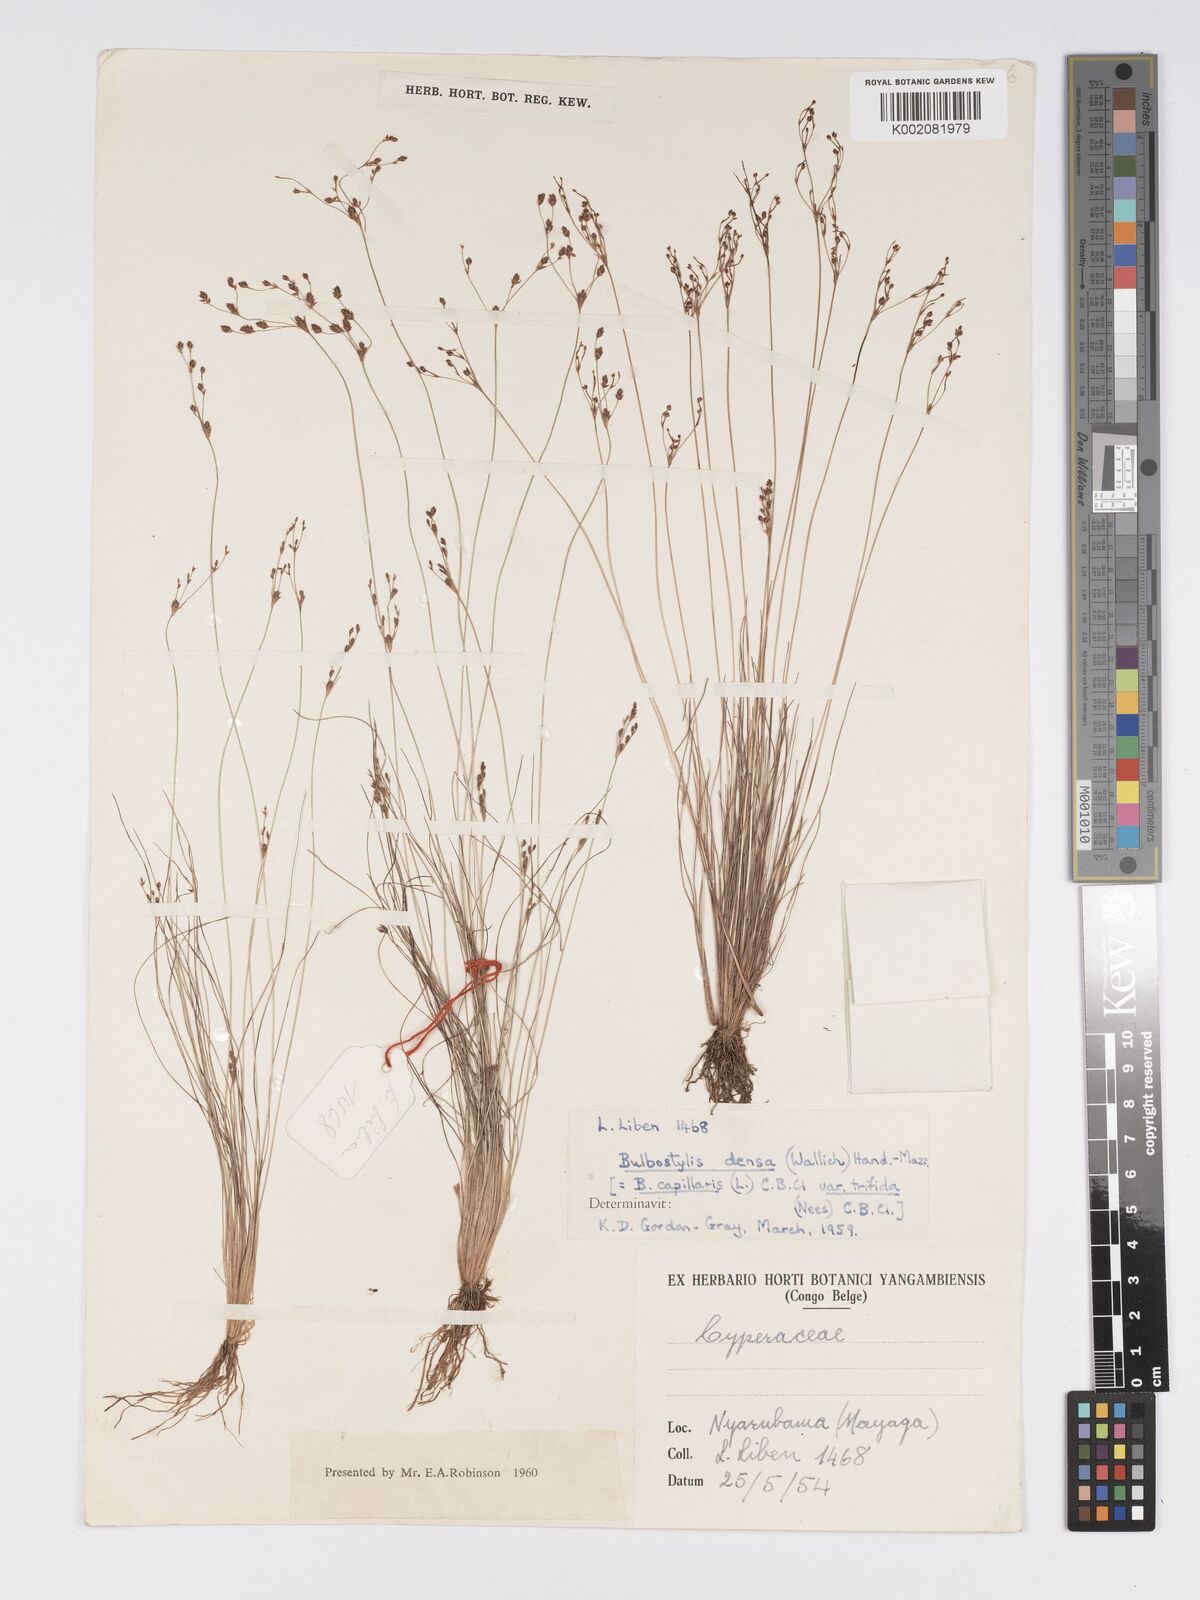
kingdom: Plantae
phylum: Tracheophyta
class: Liliopsida
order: Poales
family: Cyperaceae
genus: Bulbostylis
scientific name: Bulbostylis
